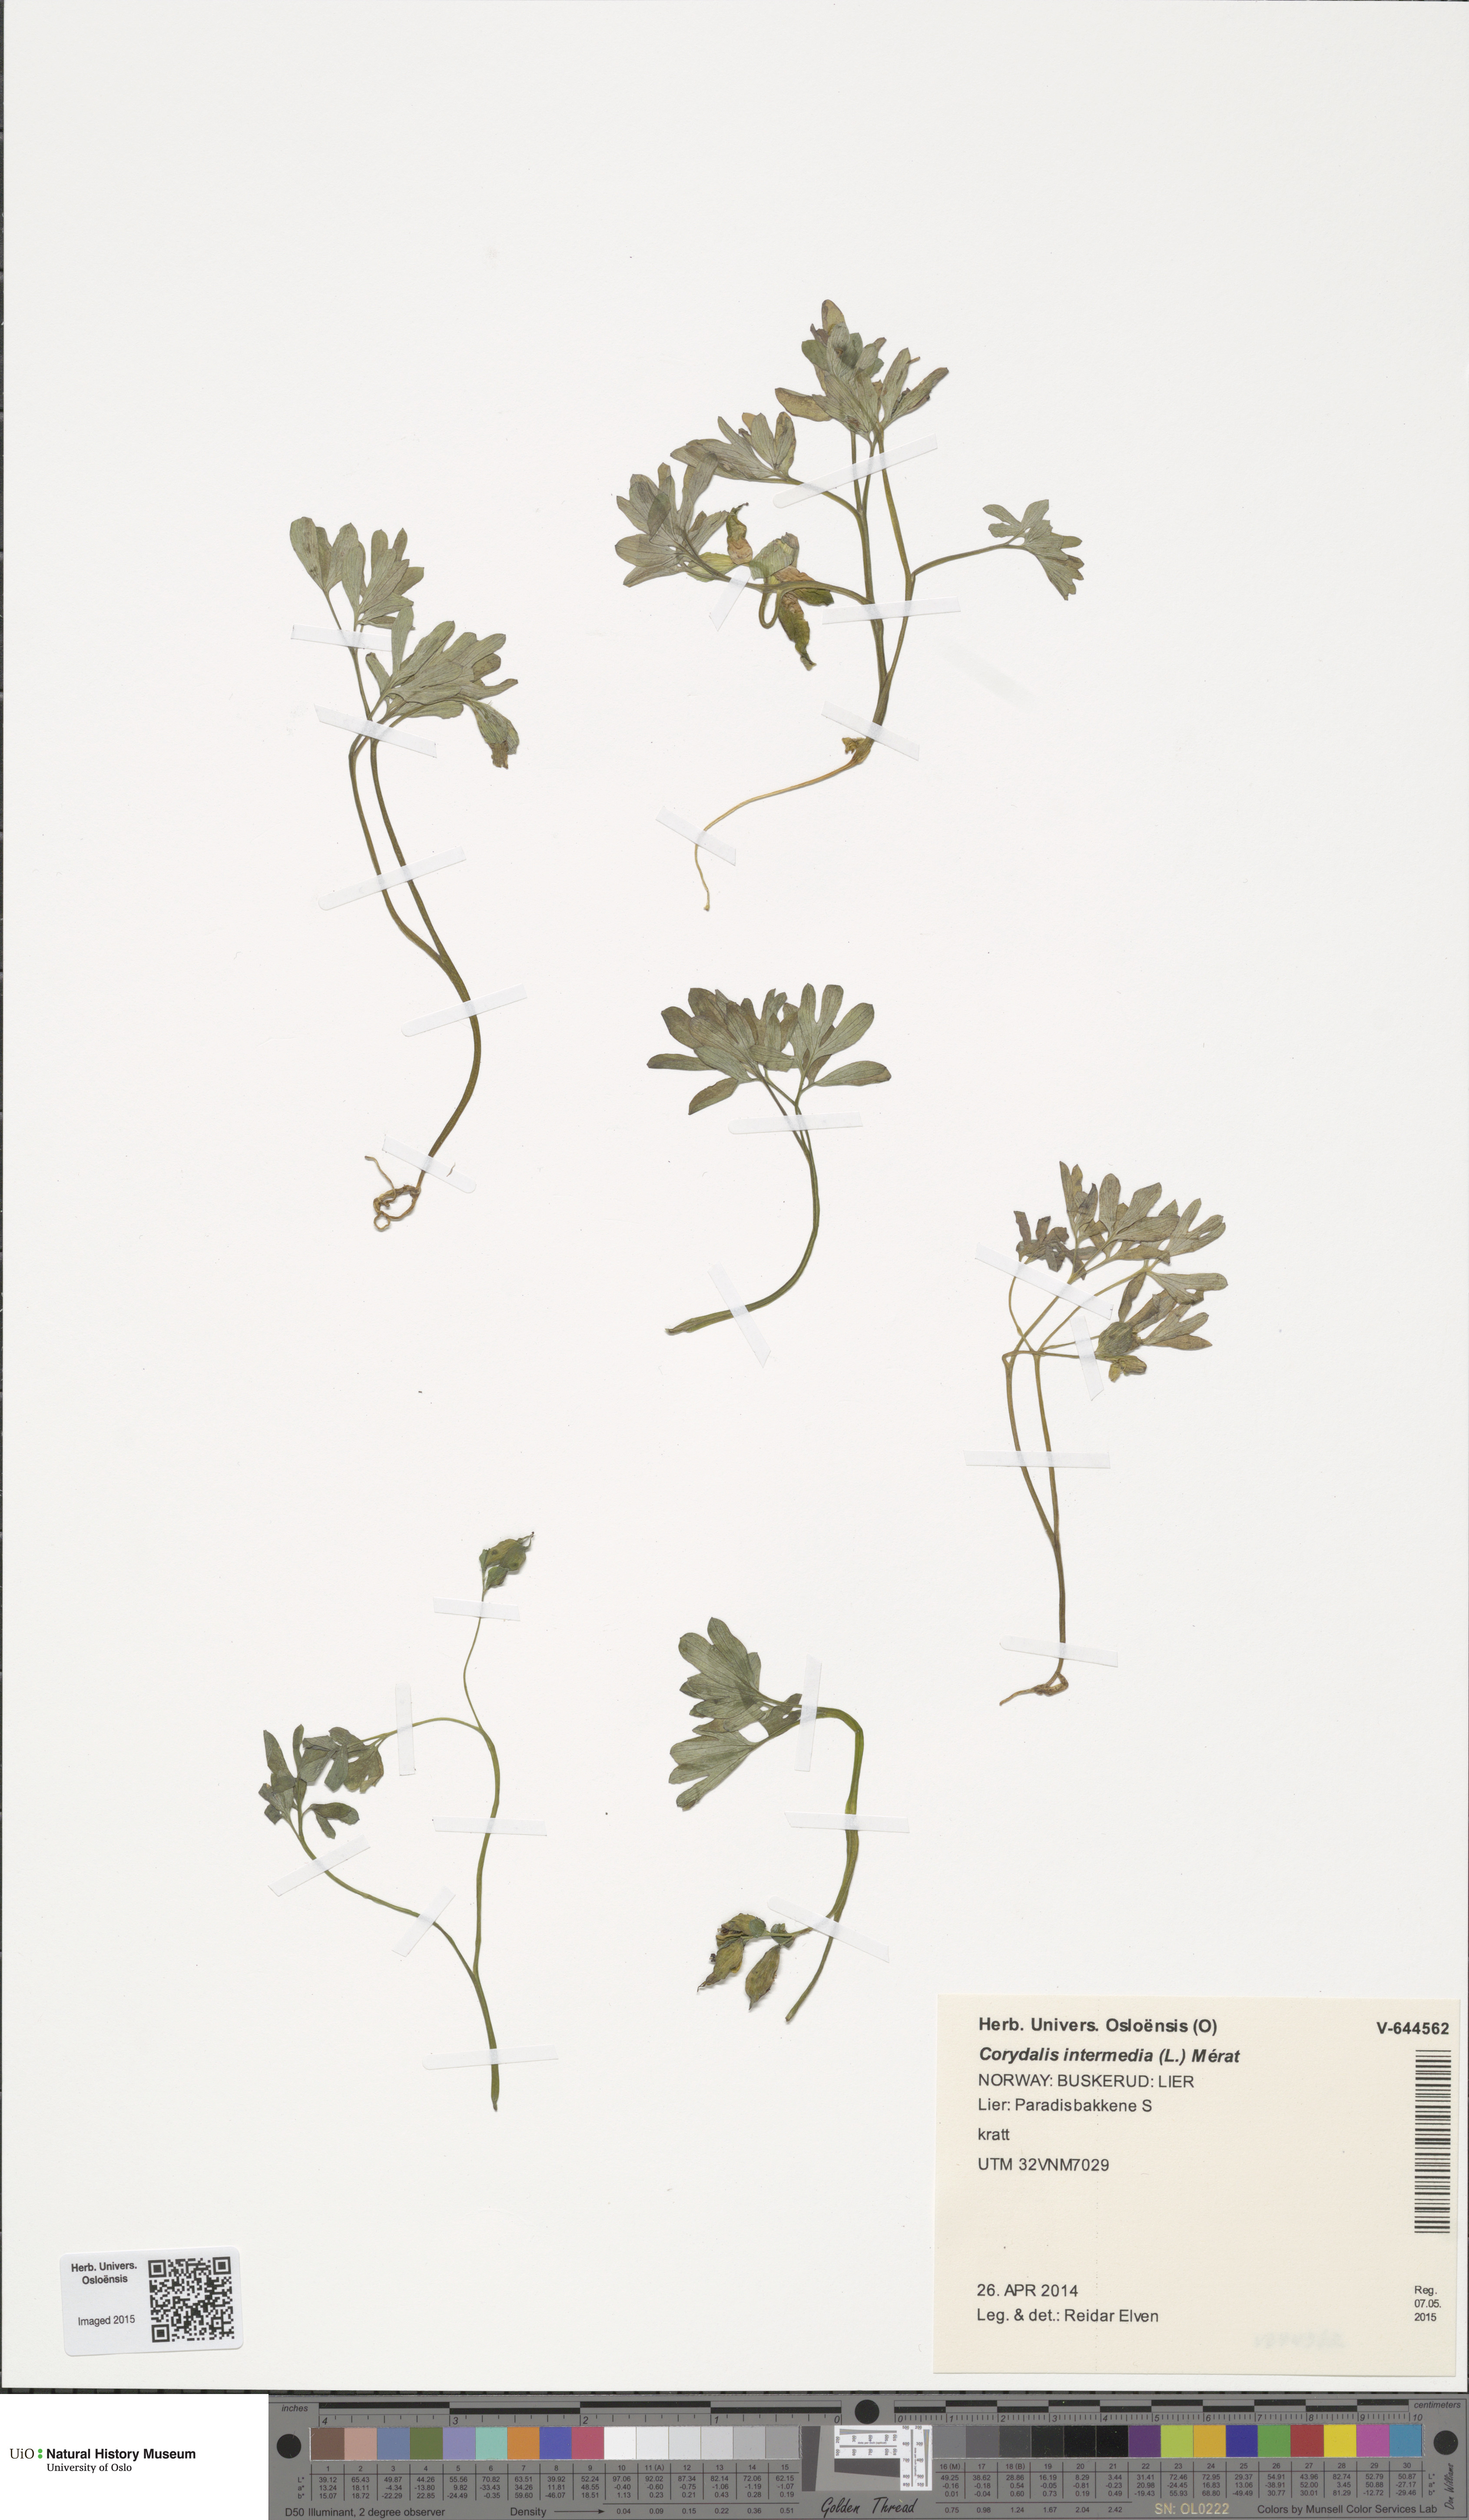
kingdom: Plantae
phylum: Tracheophyta
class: Magnoliopsida
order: Ranunculales
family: Papaveraceae
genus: Corydalis
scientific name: Corydalis intermedia
